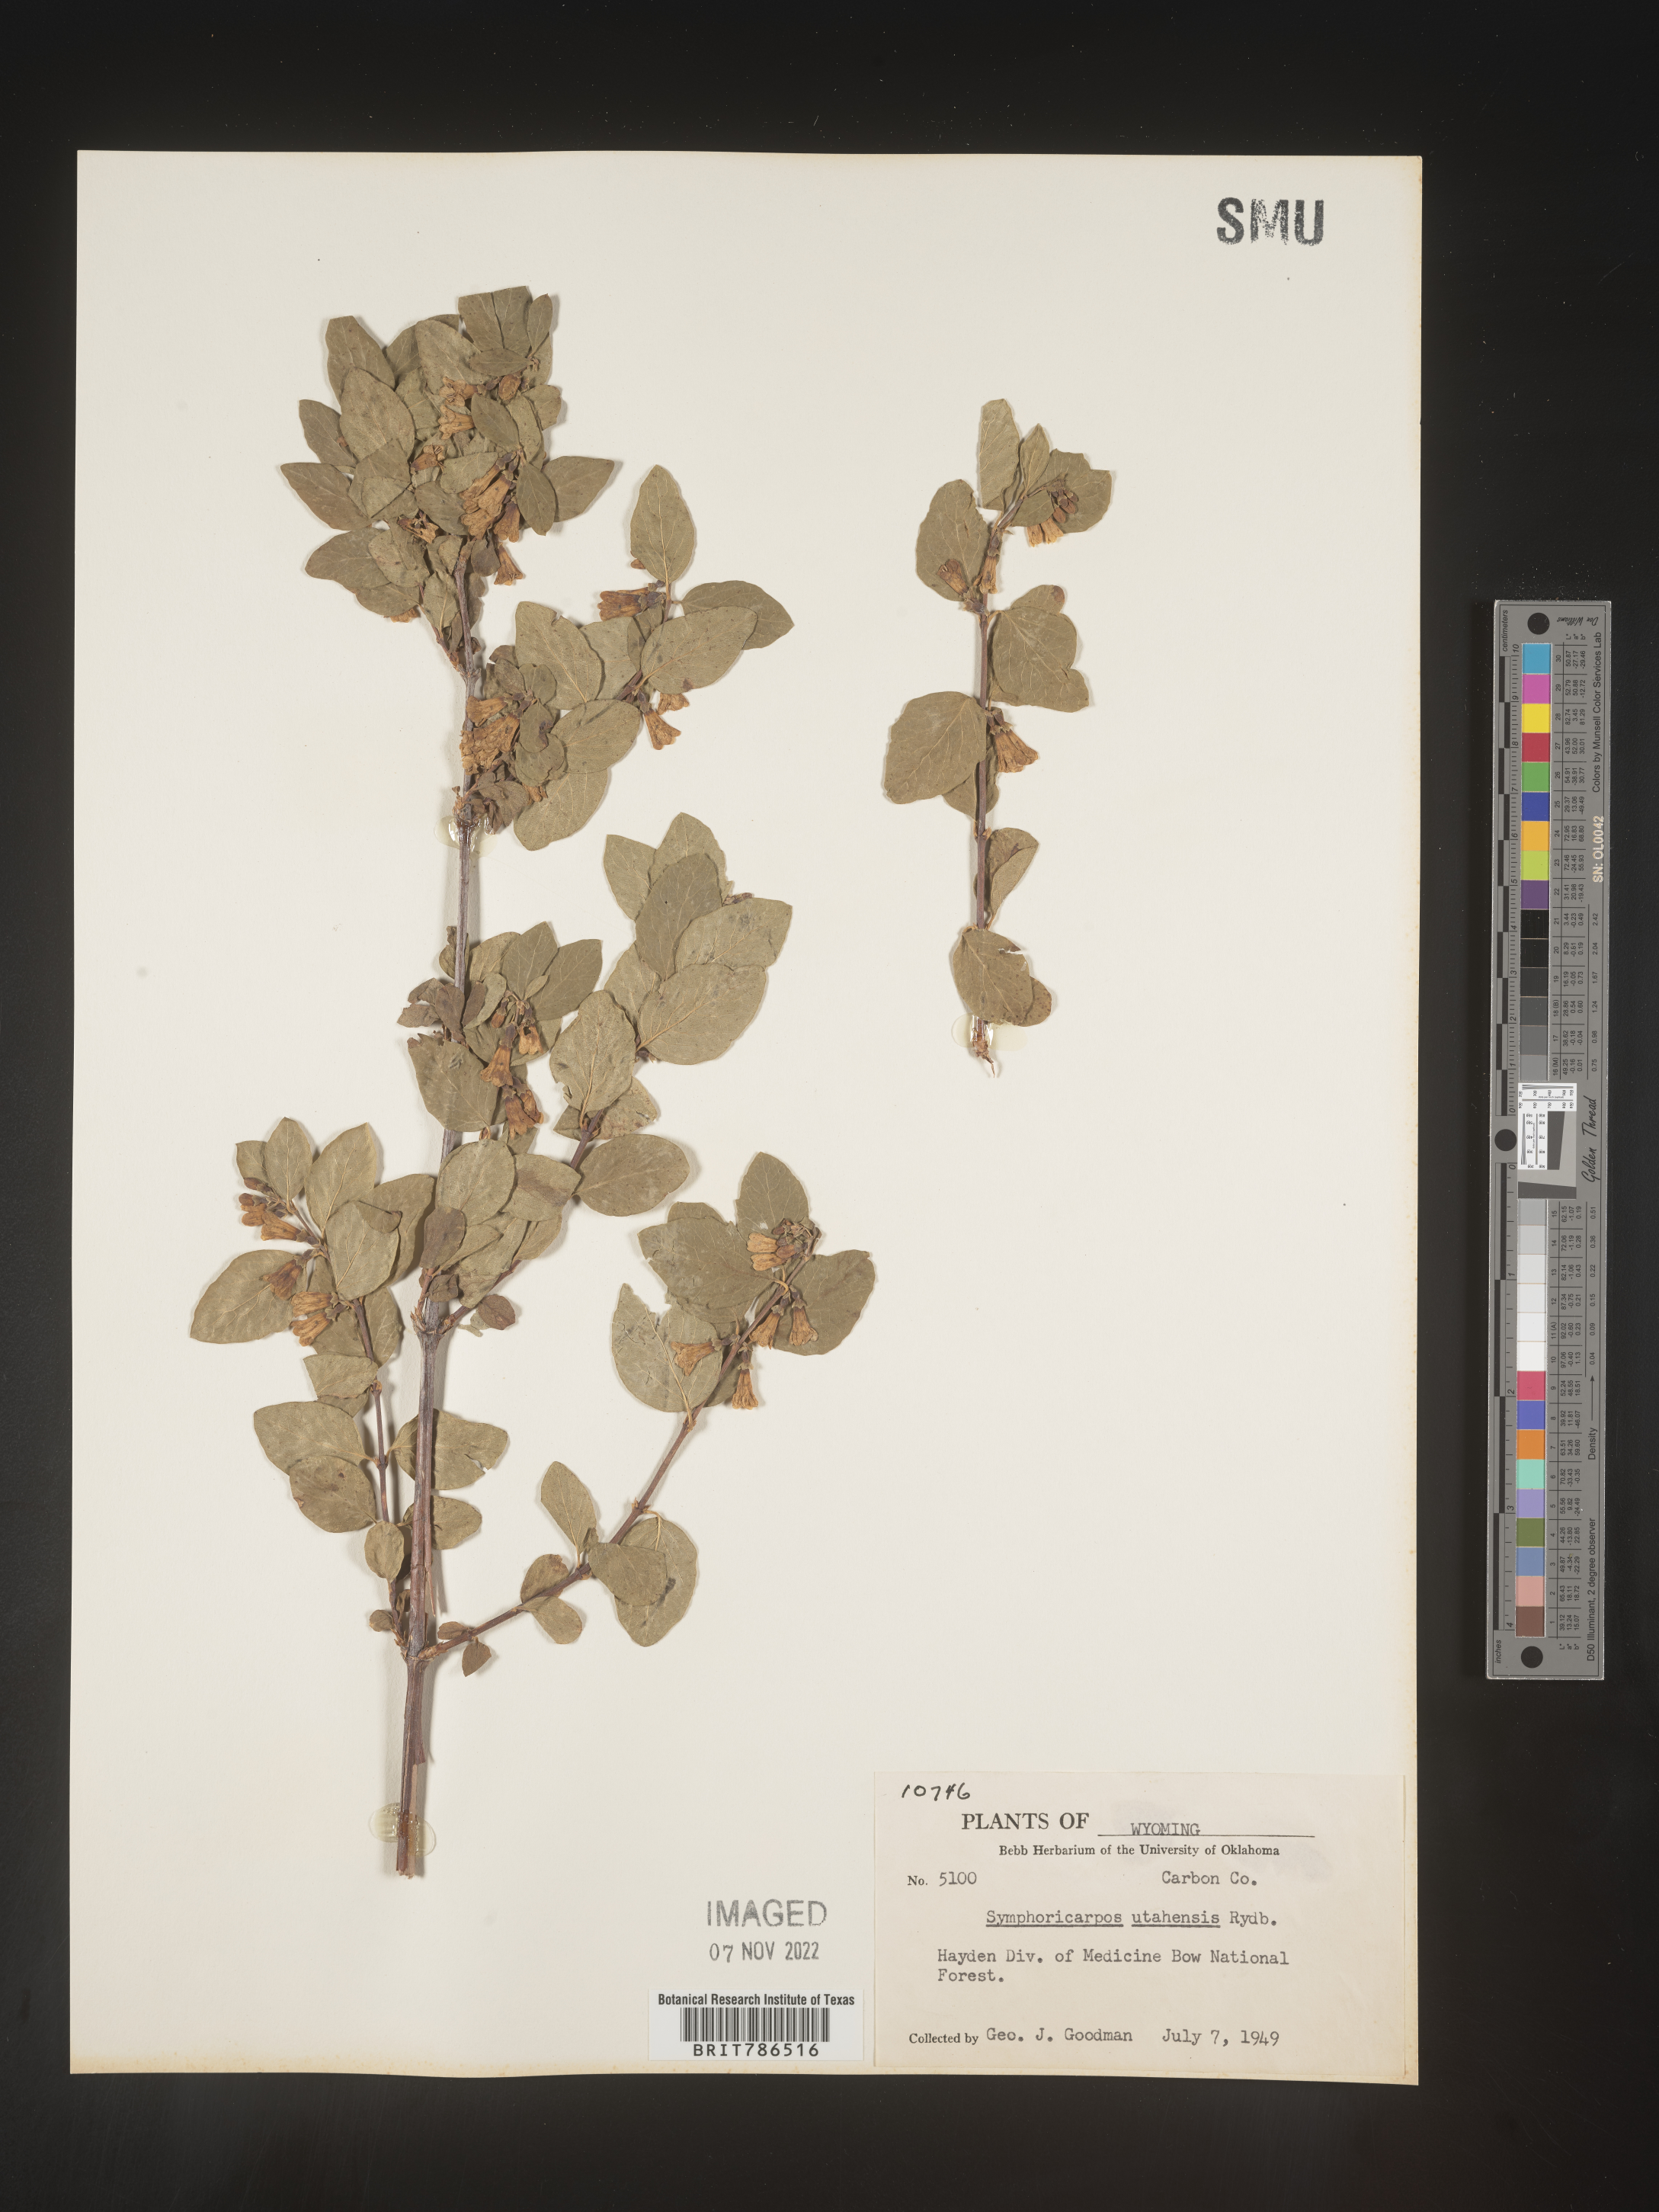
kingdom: Plantae
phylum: Tracheophyta
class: Magnoliopsida
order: Dipsacales
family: Caprifoliaceae
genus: Symphoricarpos
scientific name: Symphoricarpos
